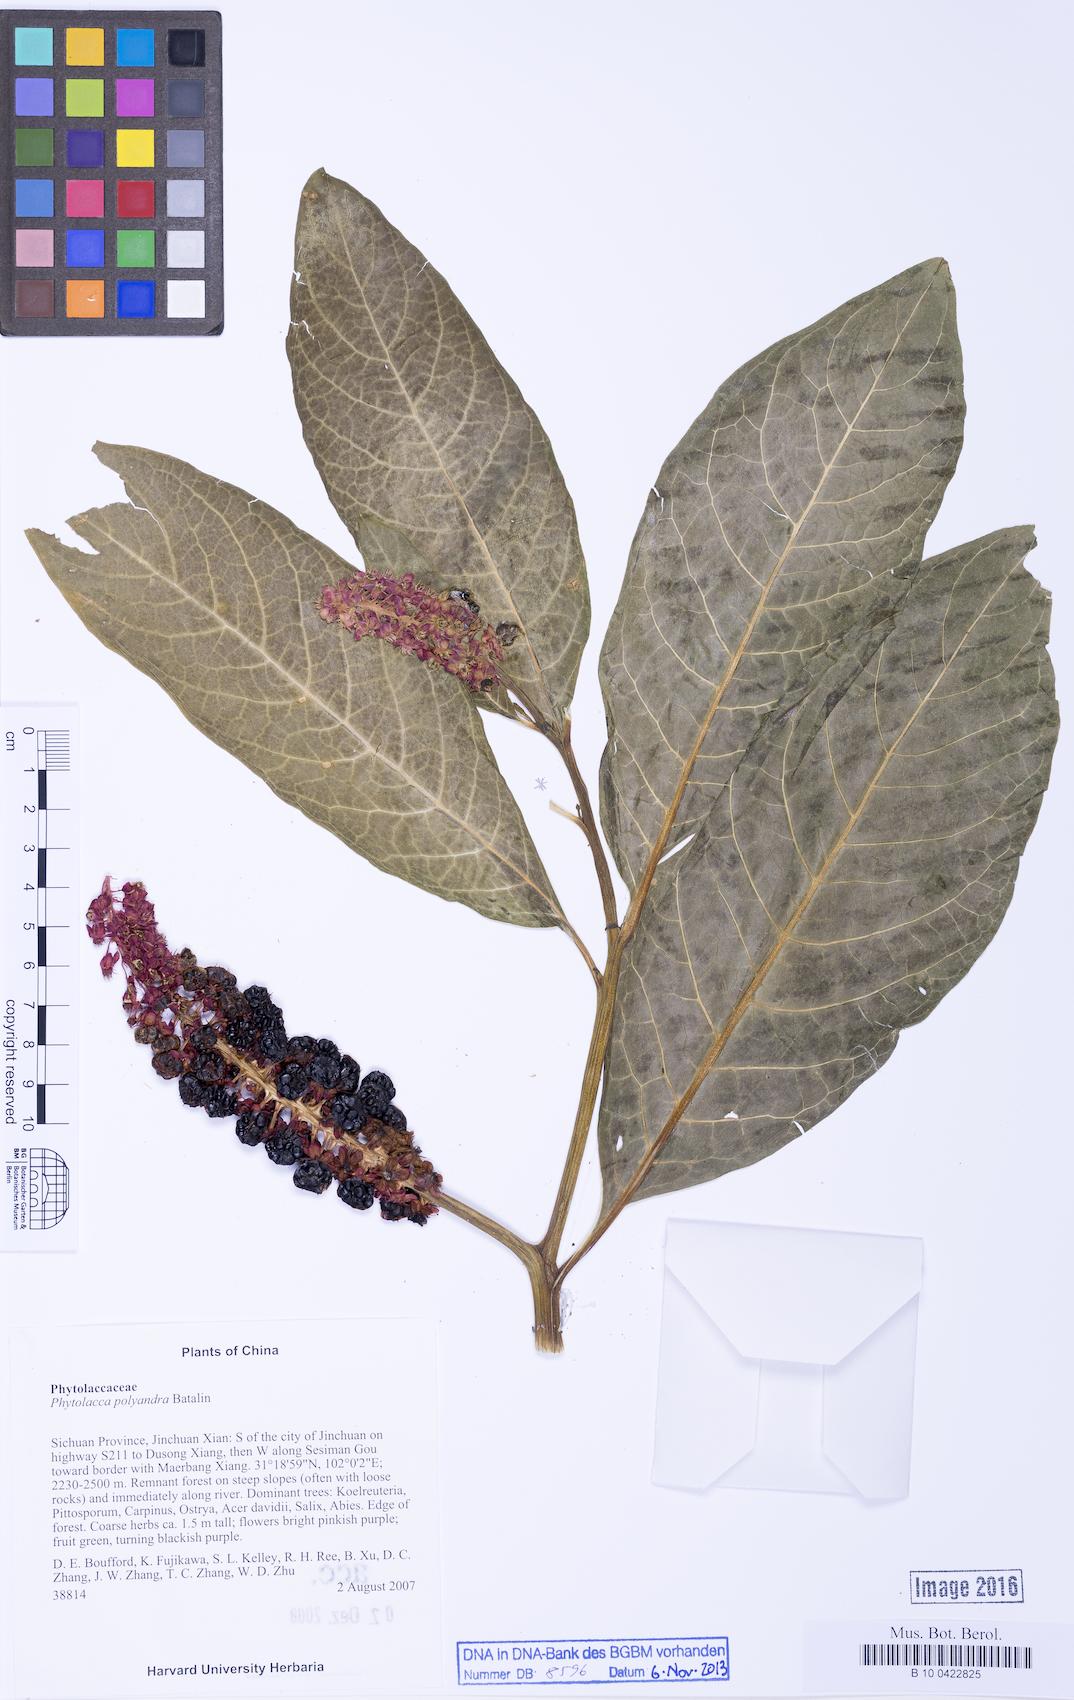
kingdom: Plantae
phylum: Tracheophyta
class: Magnoliopsida
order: Caryophyllales
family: Phytolaccaceae
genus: Phytolacca
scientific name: Phytolacca polyandra
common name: Chinese pokeweed
